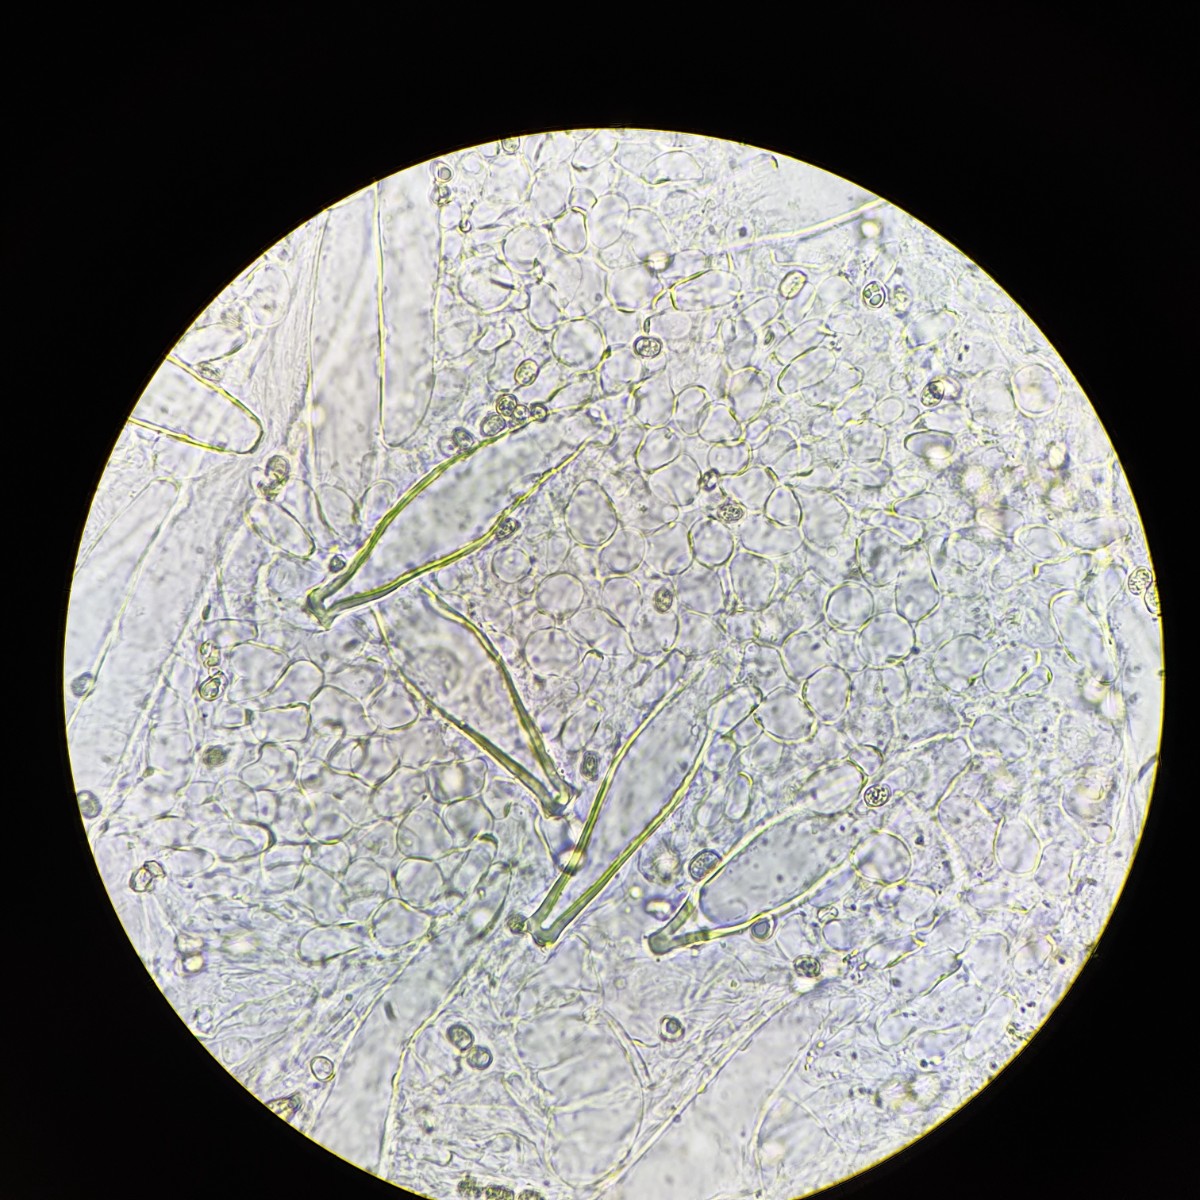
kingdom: Fungi
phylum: Basidiomycota
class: Agaricomycetes
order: Agaricales
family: Pluteaceae
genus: Pluteus
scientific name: Pluteus petasatus
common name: savsmulds-skærmhat
